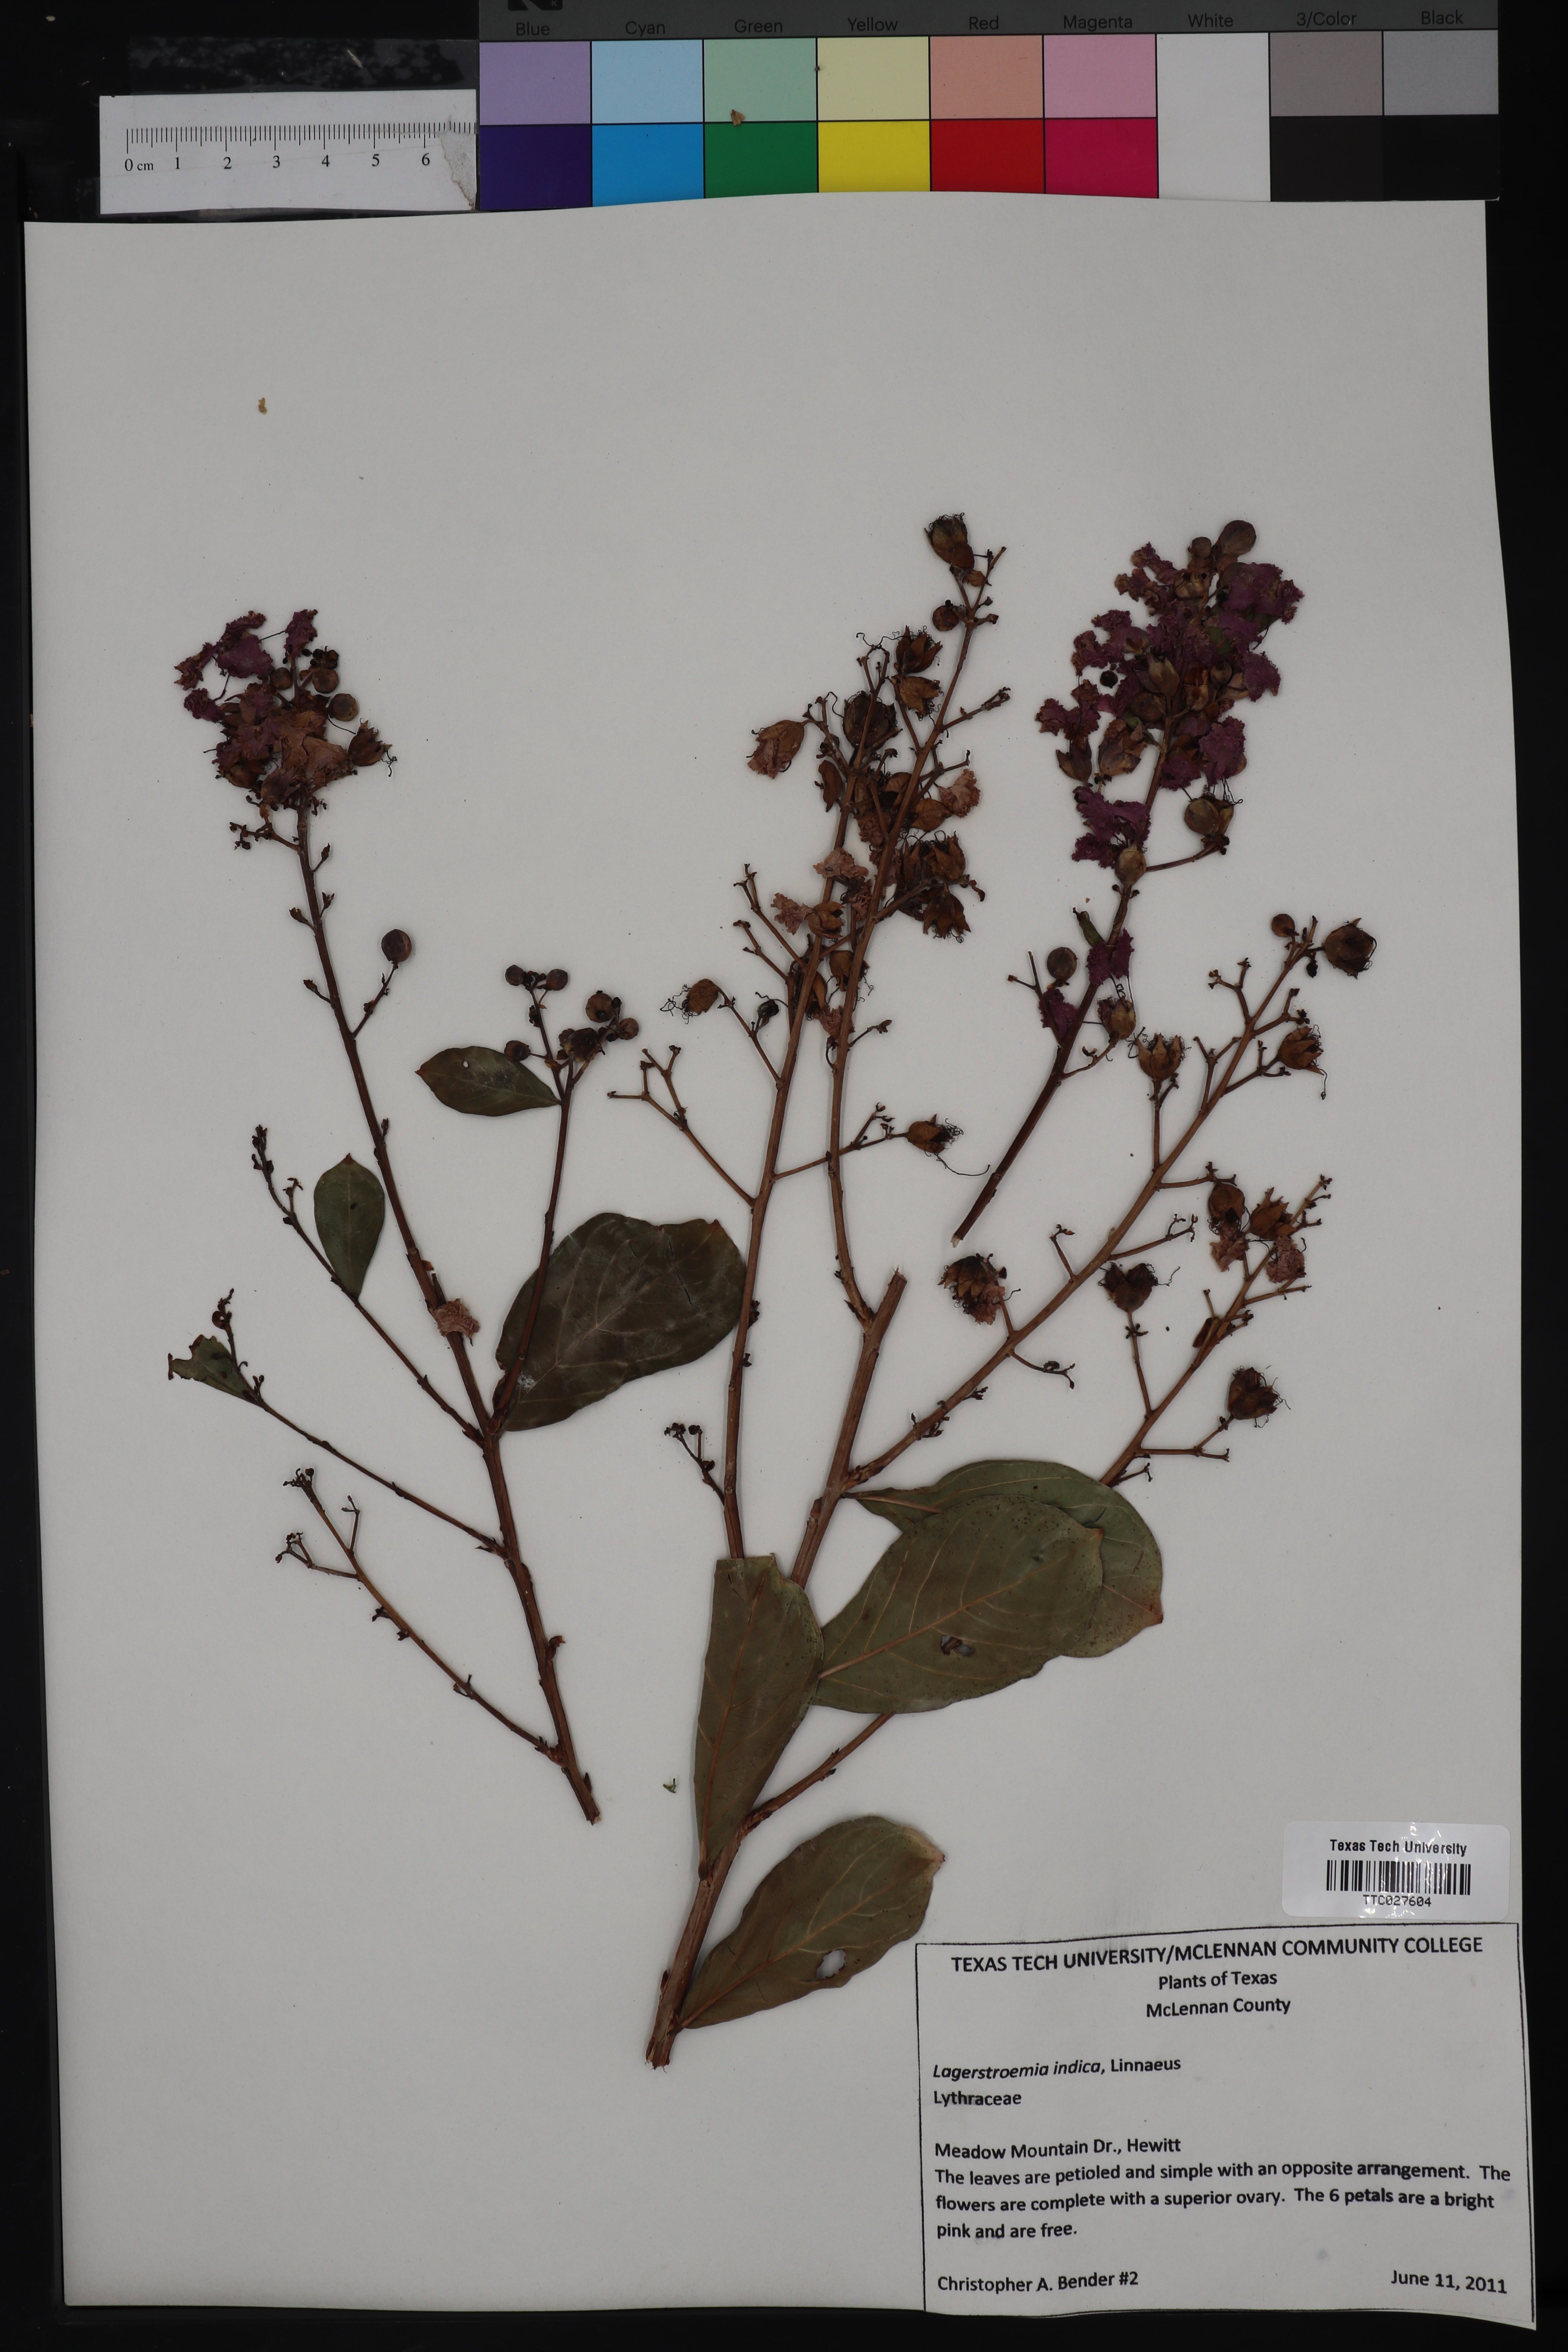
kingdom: Plantae
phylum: Tracheophyta
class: Magnoliopsida
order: Myrtales
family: Lythraceae
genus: Lagerstroemia
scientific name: Lagerstroemia indica
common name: Crape-myrtle
